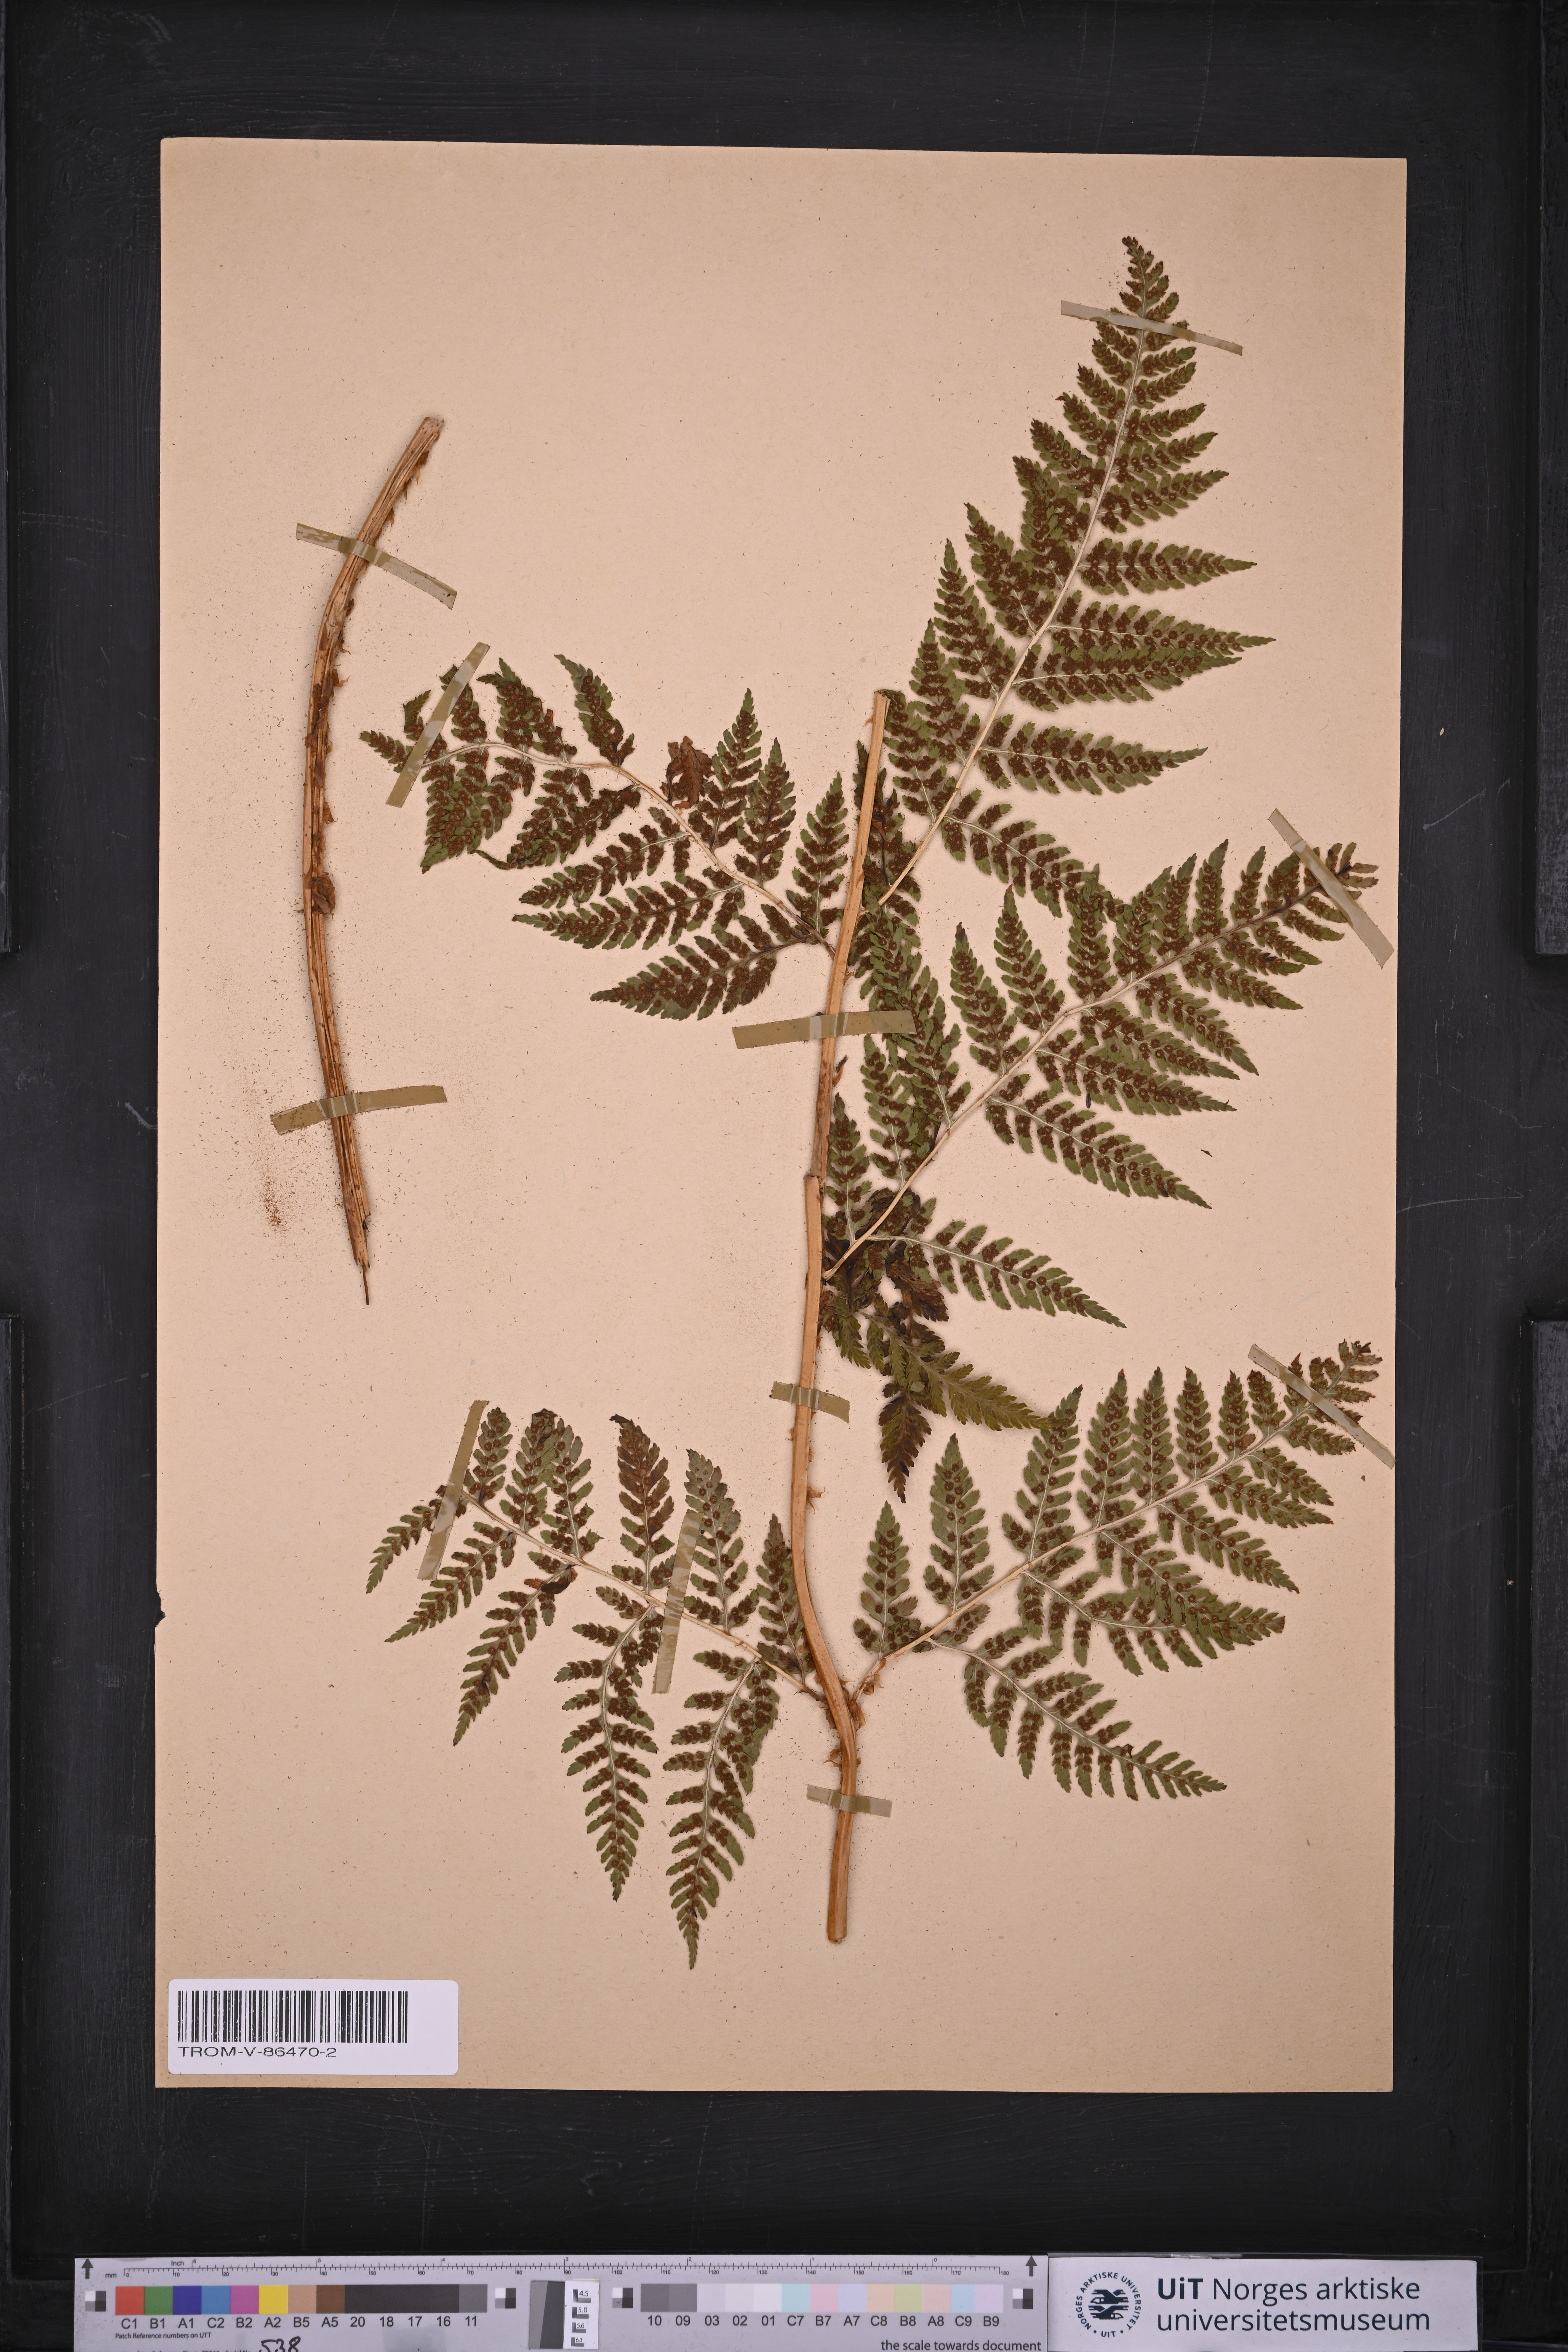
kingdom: Plantae
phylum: Tracheophyta
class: Polypodiopsida
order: Polypodiales
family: Dryopteridaceae
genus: Dryopteris
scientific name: Dryopteris dilatata
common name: Broad buckler-fern
